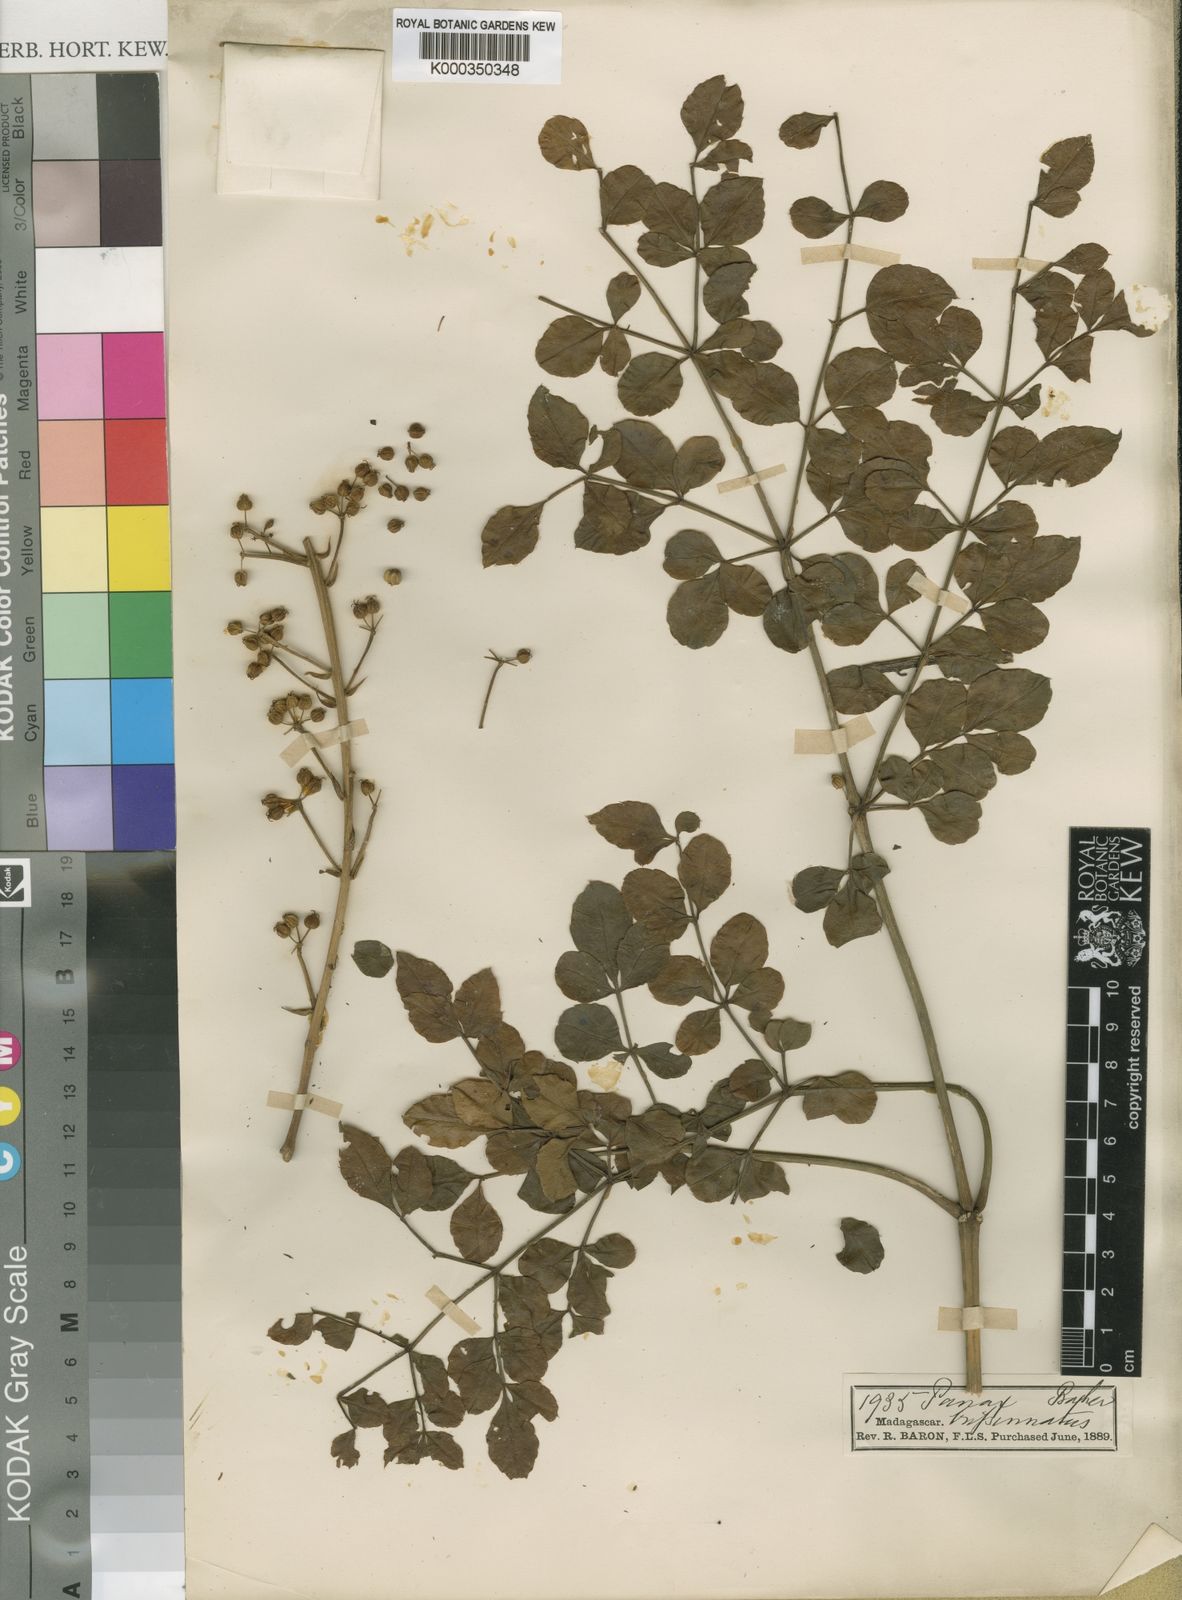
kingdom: Plantae
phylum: Tracheophyta
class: Magnoliopsida
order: Apiales
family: Araliaceae
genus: Polyscias
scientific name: Polyscias tripinnata
